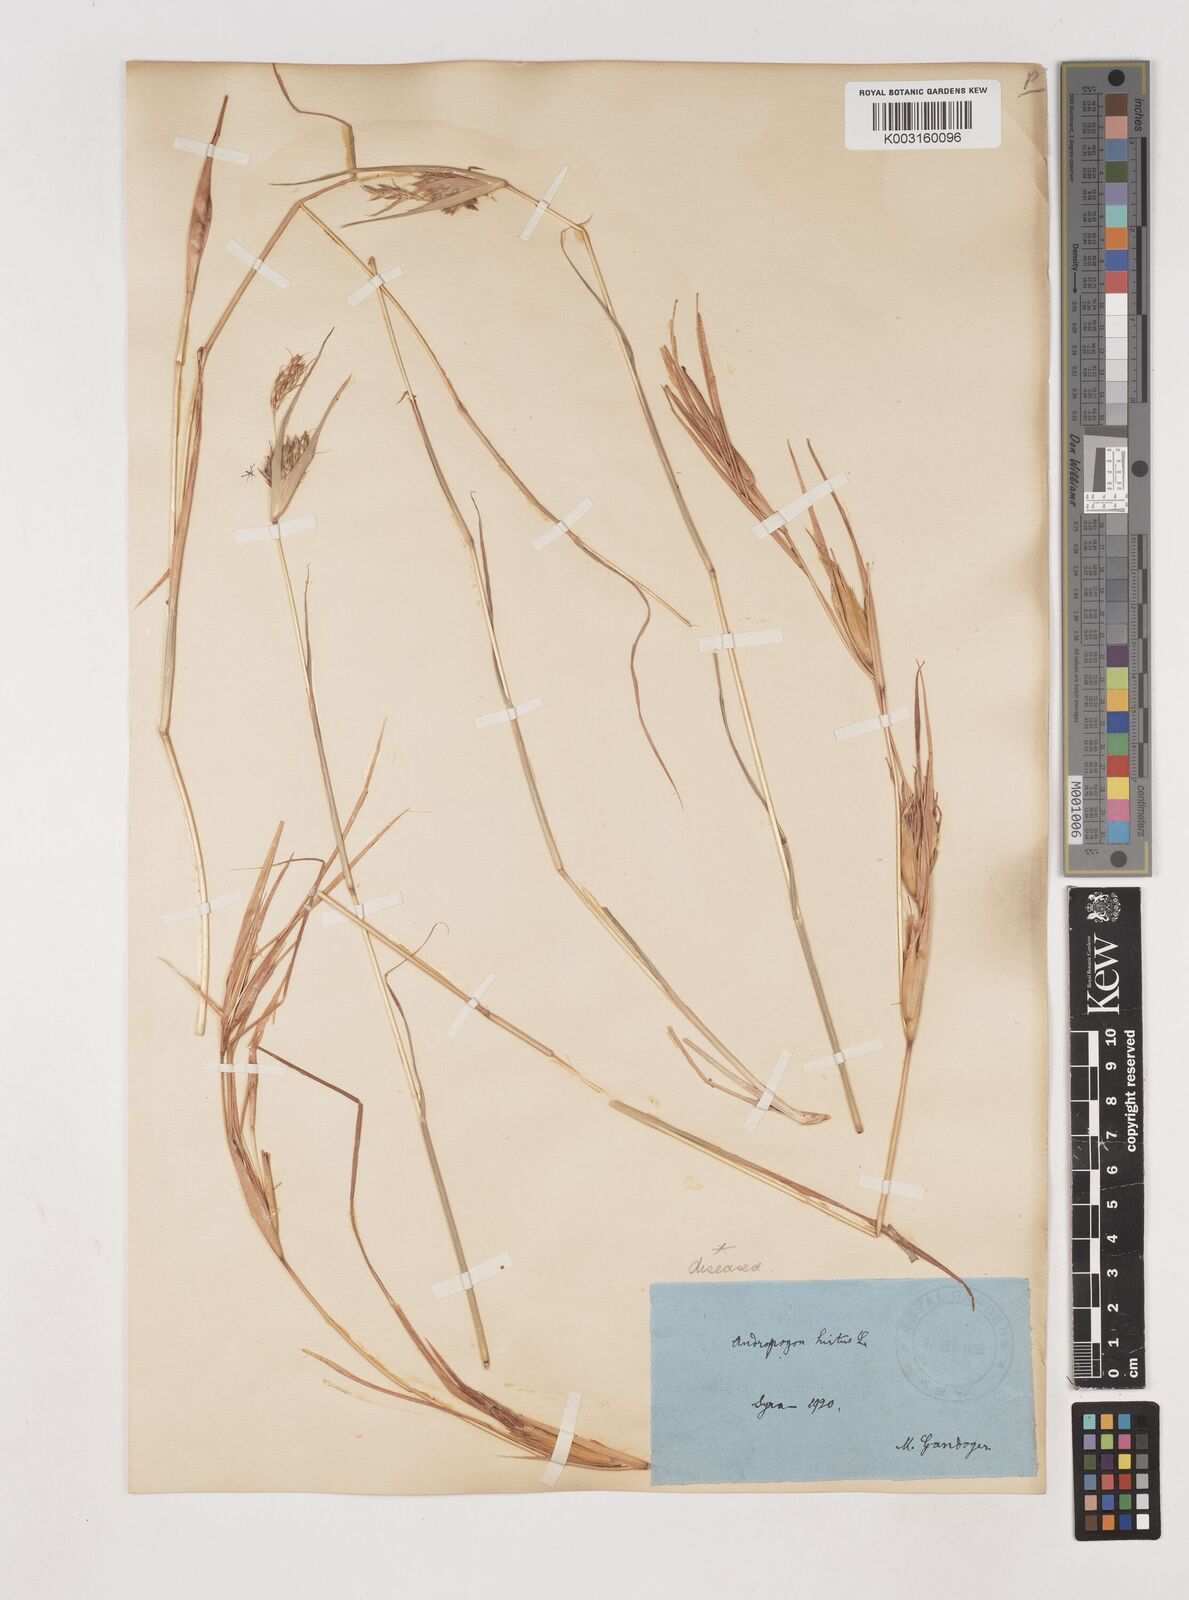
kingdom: Plantae
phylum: Tracheophyta
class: Liliopsida
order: Poales
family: Poaceae
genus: Hyparrhenia
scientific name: Hyparrhenia hirta
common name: Thatching grass
